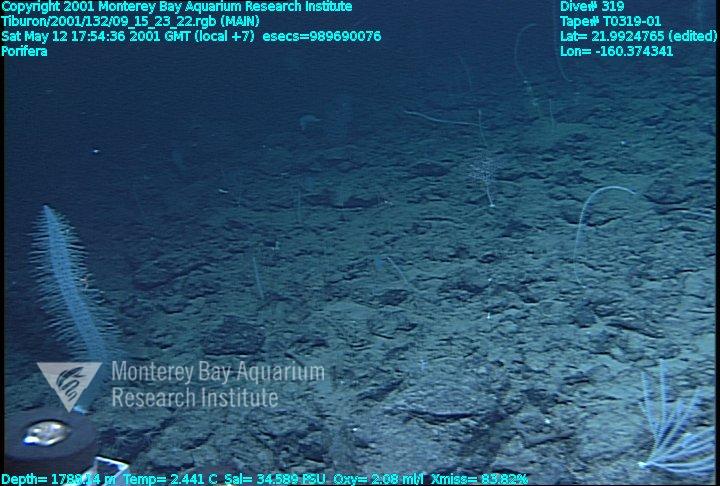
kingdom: Animalia
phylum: Porifera
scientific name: Porifera
